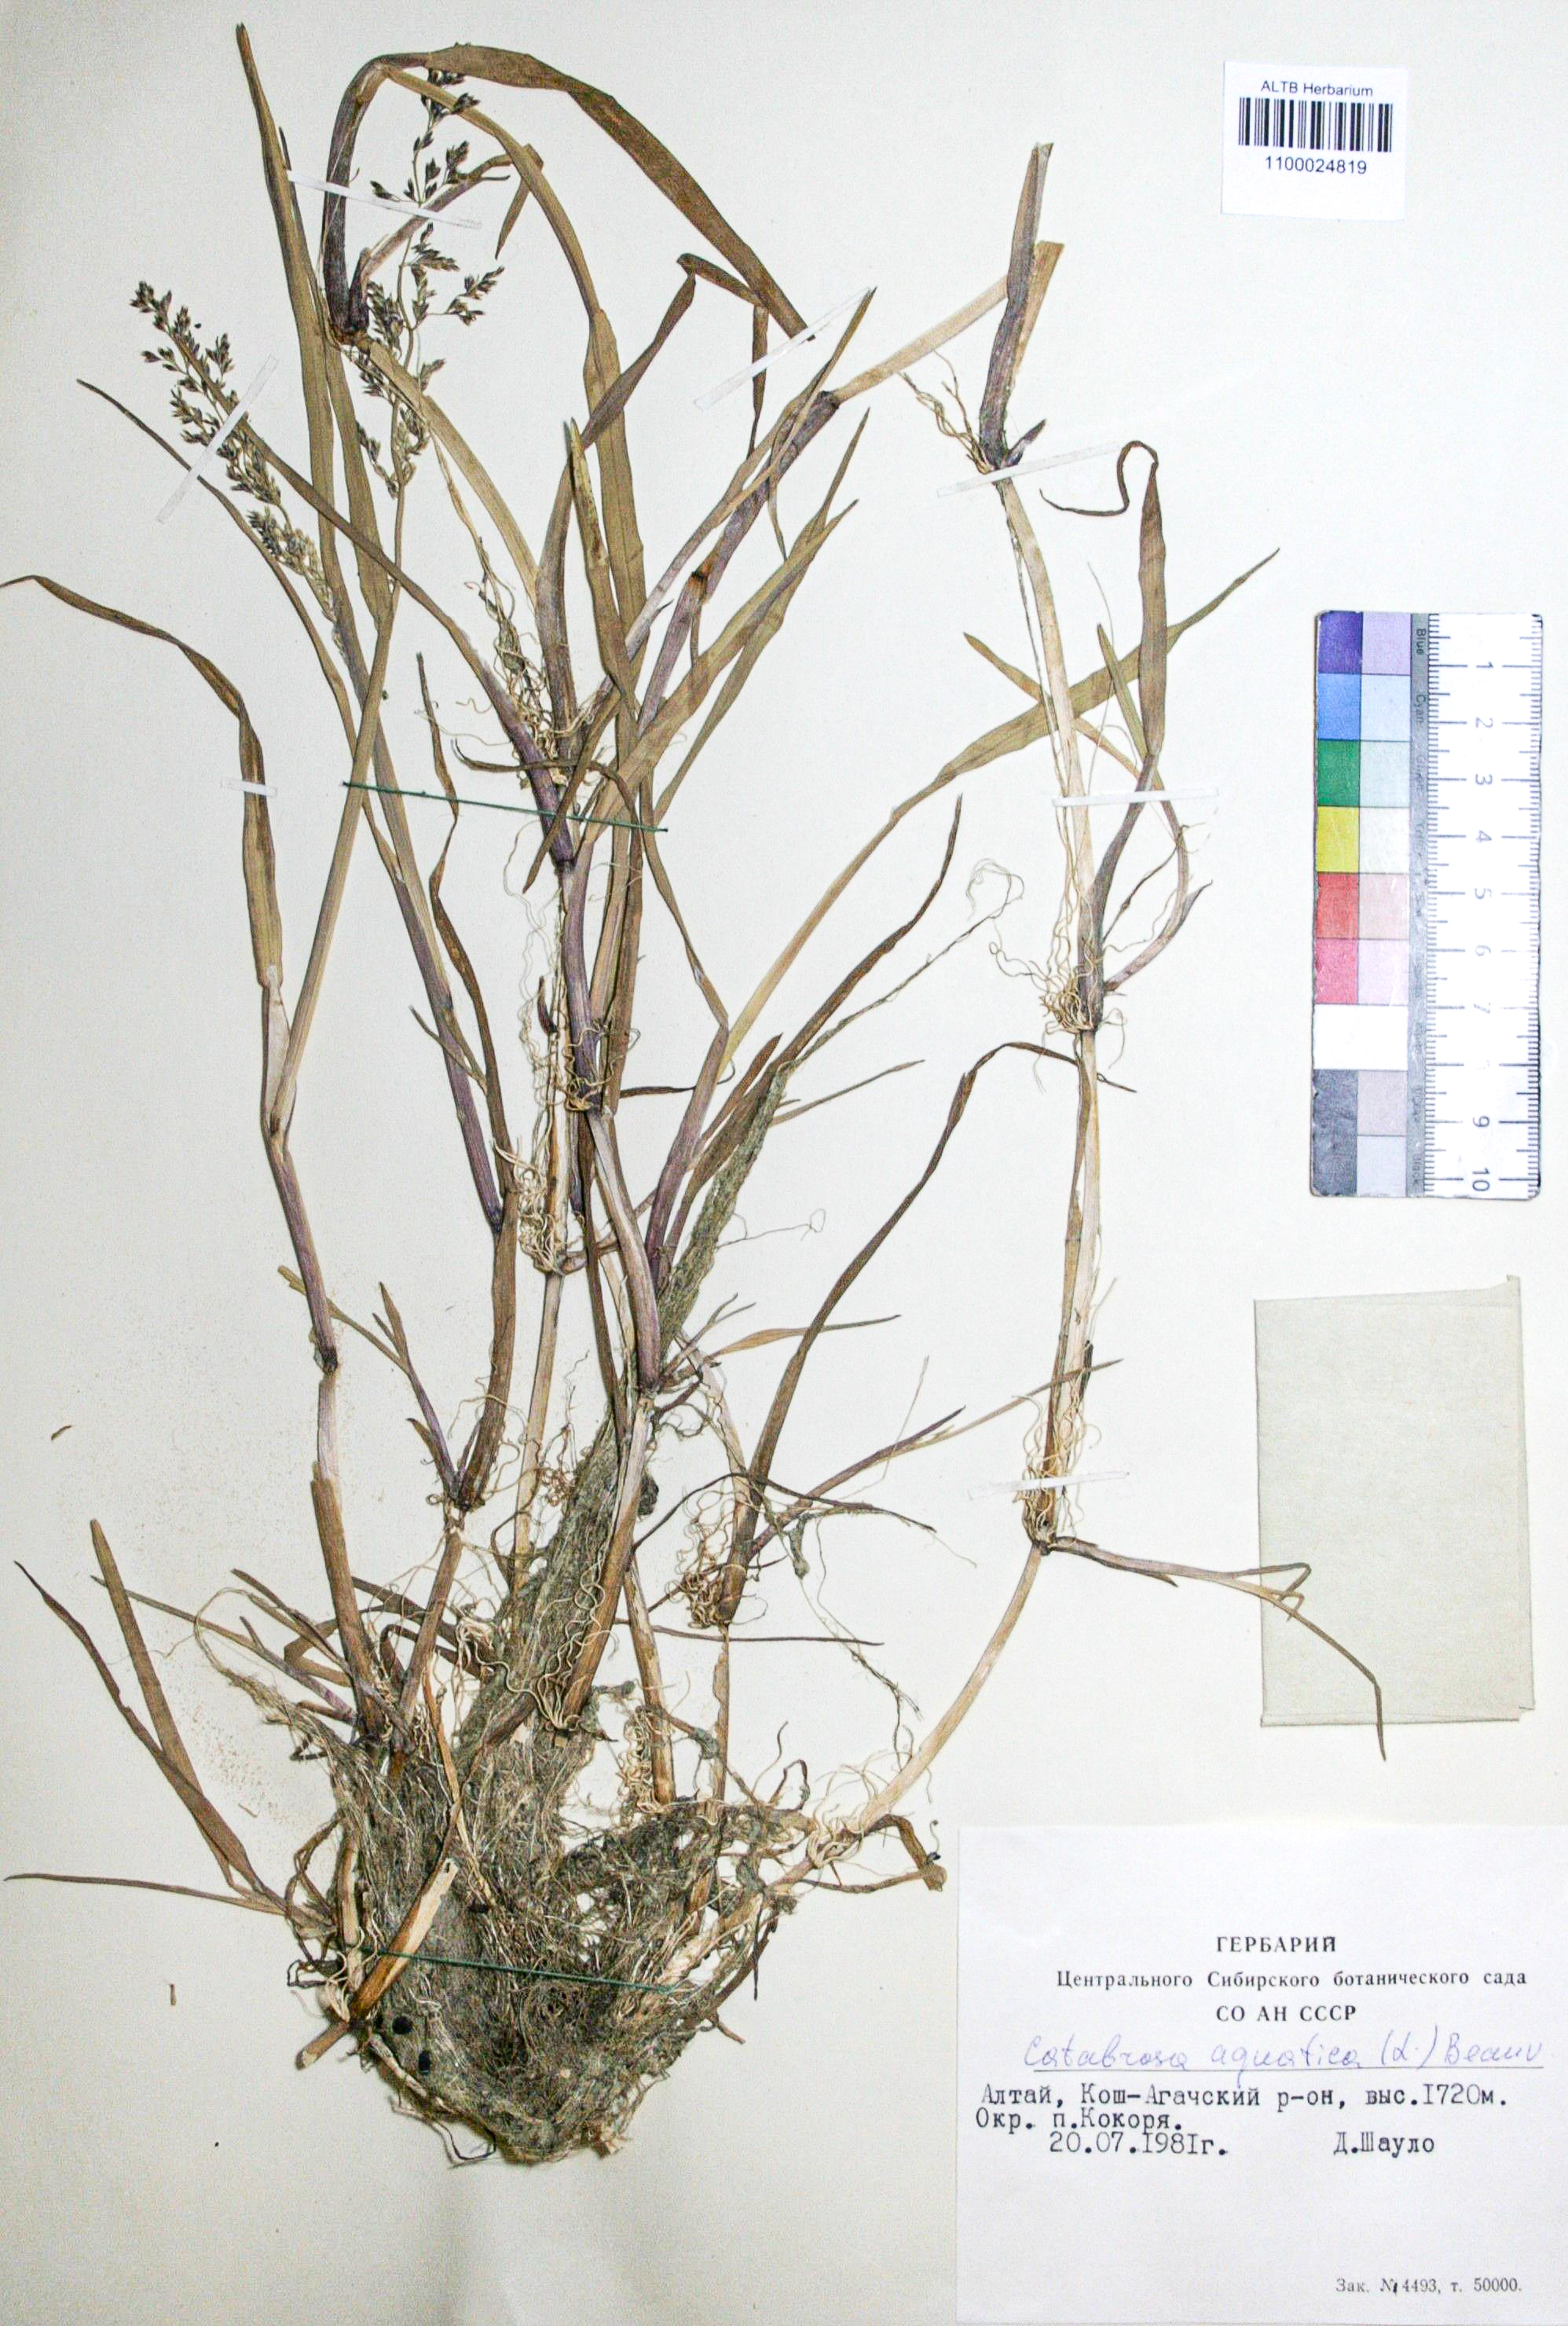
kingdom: Plantae
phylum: Tracheophyta
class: Liliopsida
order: Poales
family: Poaceae
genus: Catabrosa
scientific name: Catabrosa drakensbergensis
